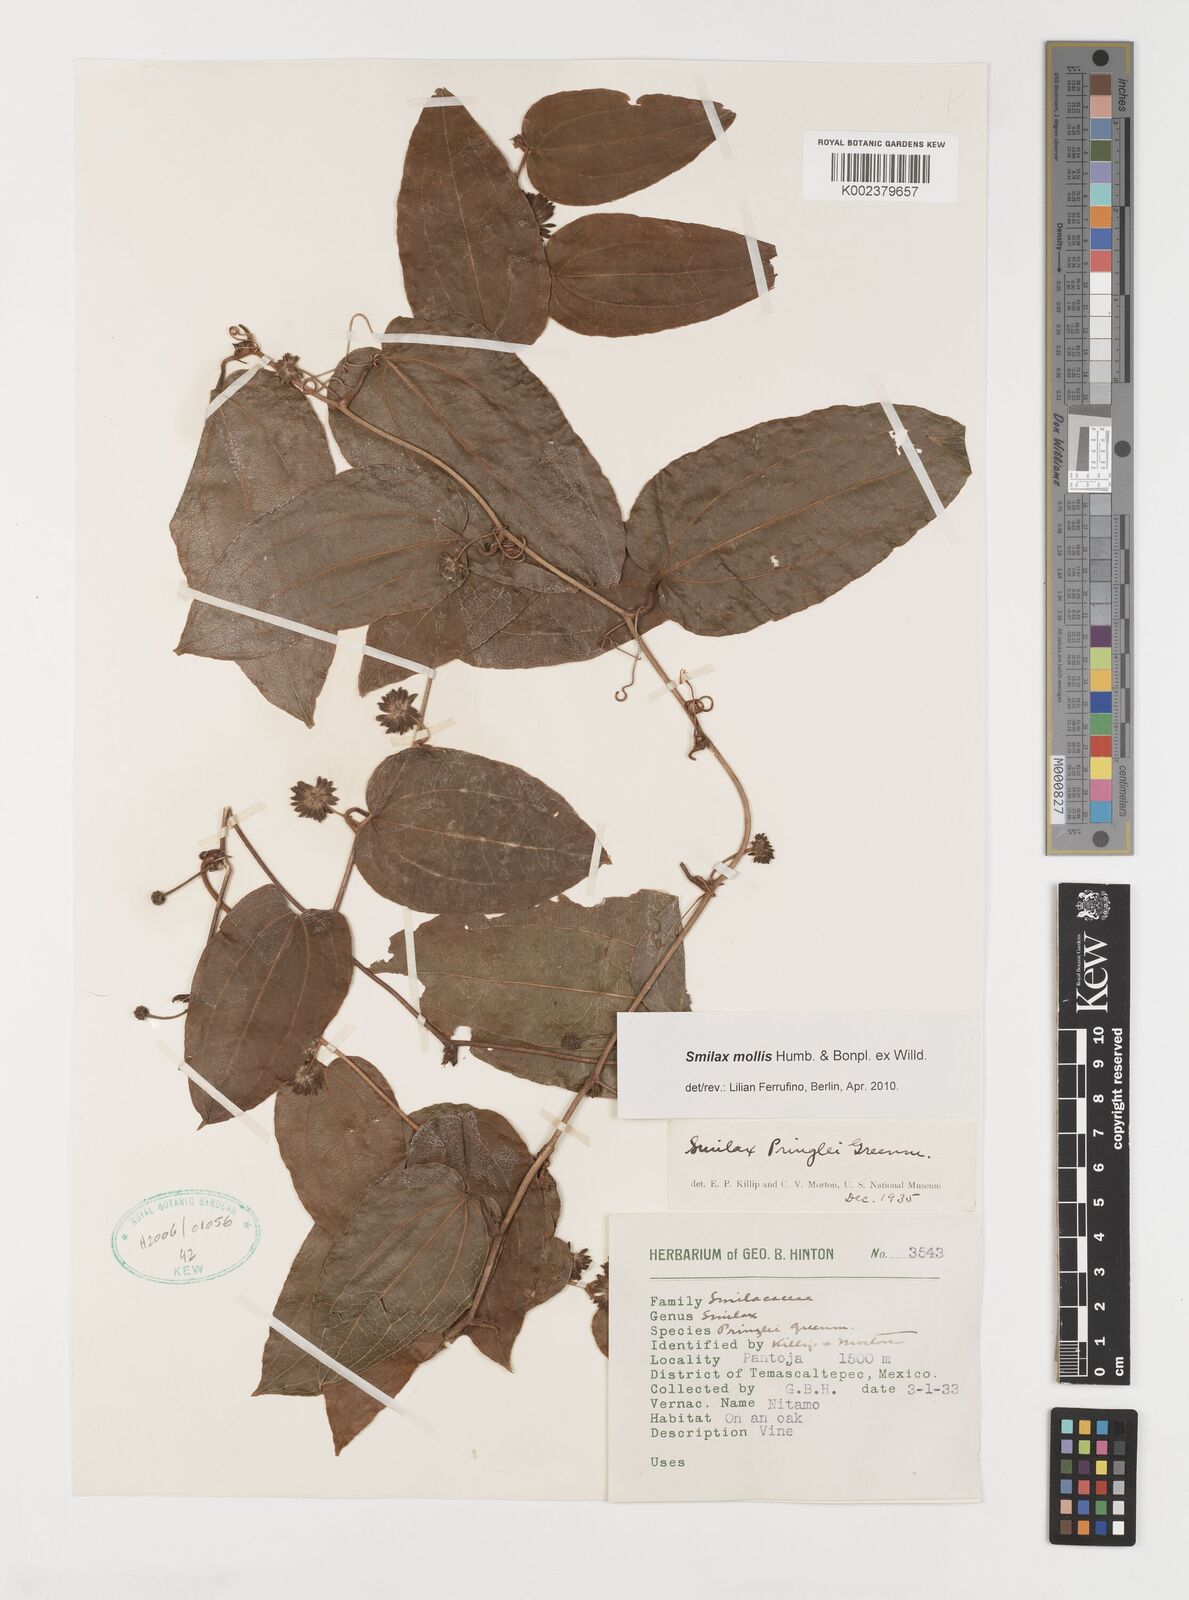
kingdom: Plantae
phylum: Tracheophyta
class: Liliopsida
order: Liliales
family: Smilacaceae
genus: Smilax
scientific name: Smilax mollis
